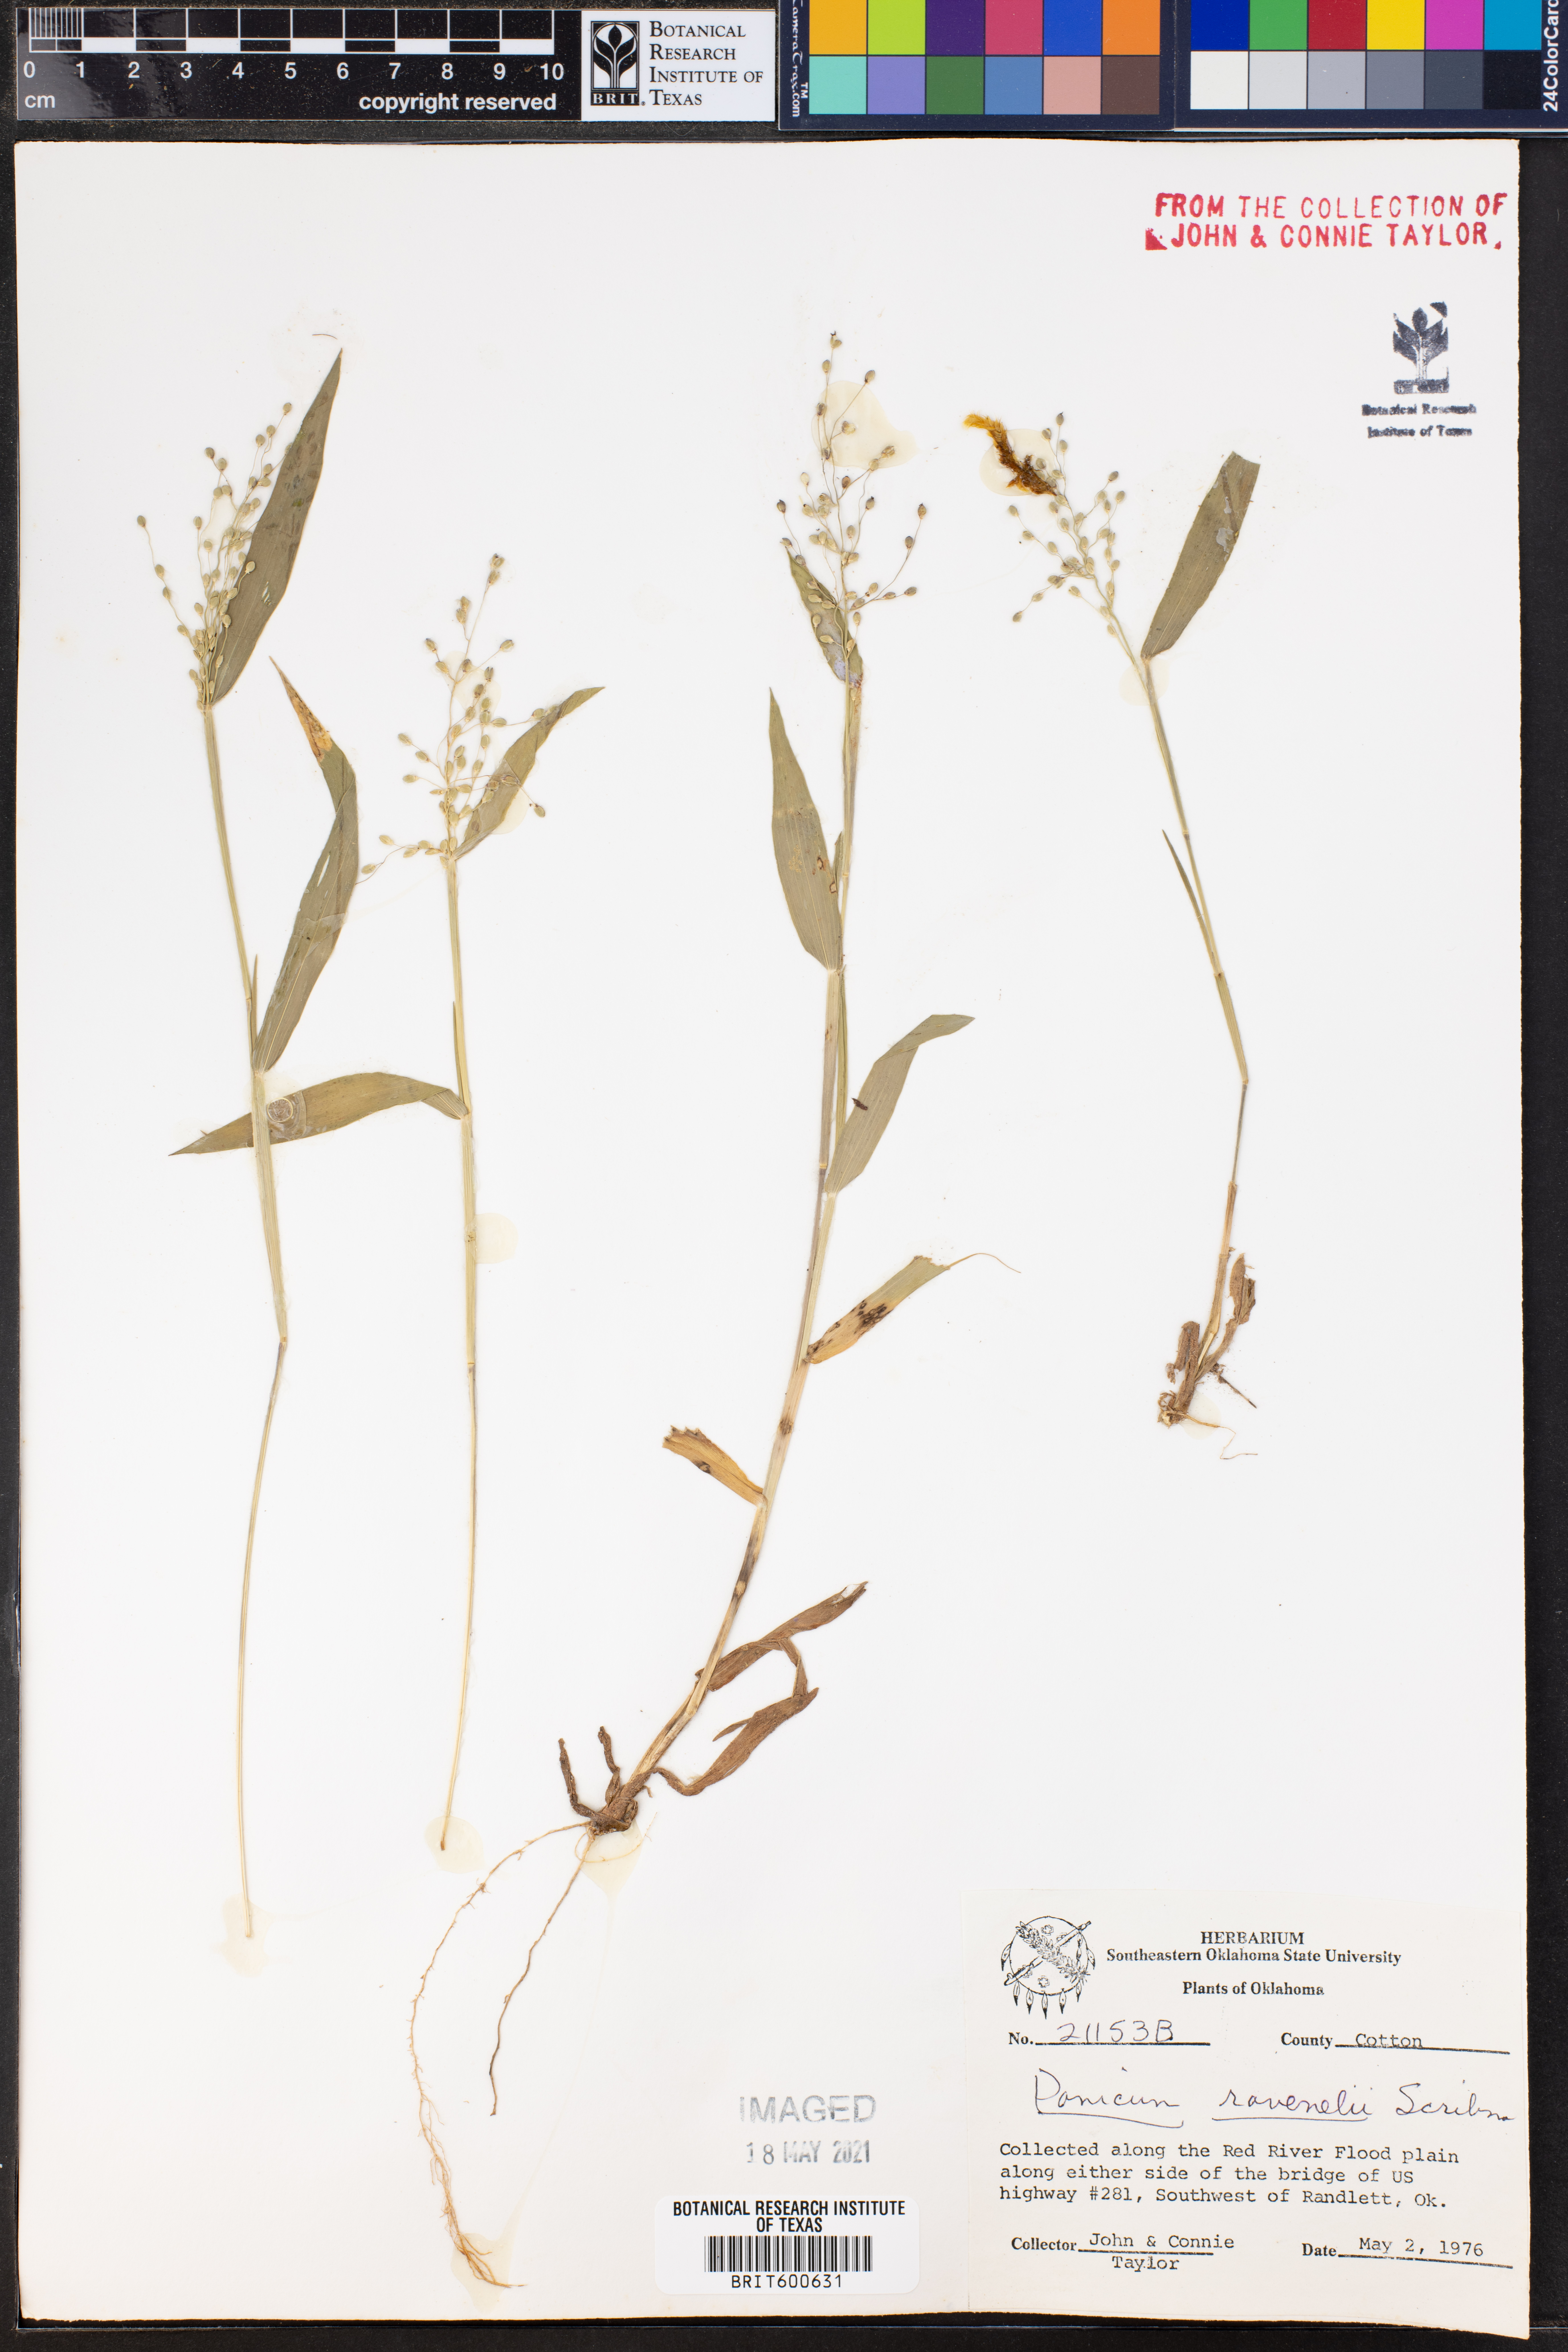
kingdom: Plantae
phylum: Tracheophyta
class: Liliopsida
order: Poales
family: Poaceae
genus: Dichanthelium
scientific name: Dichanthelium ravenelii
